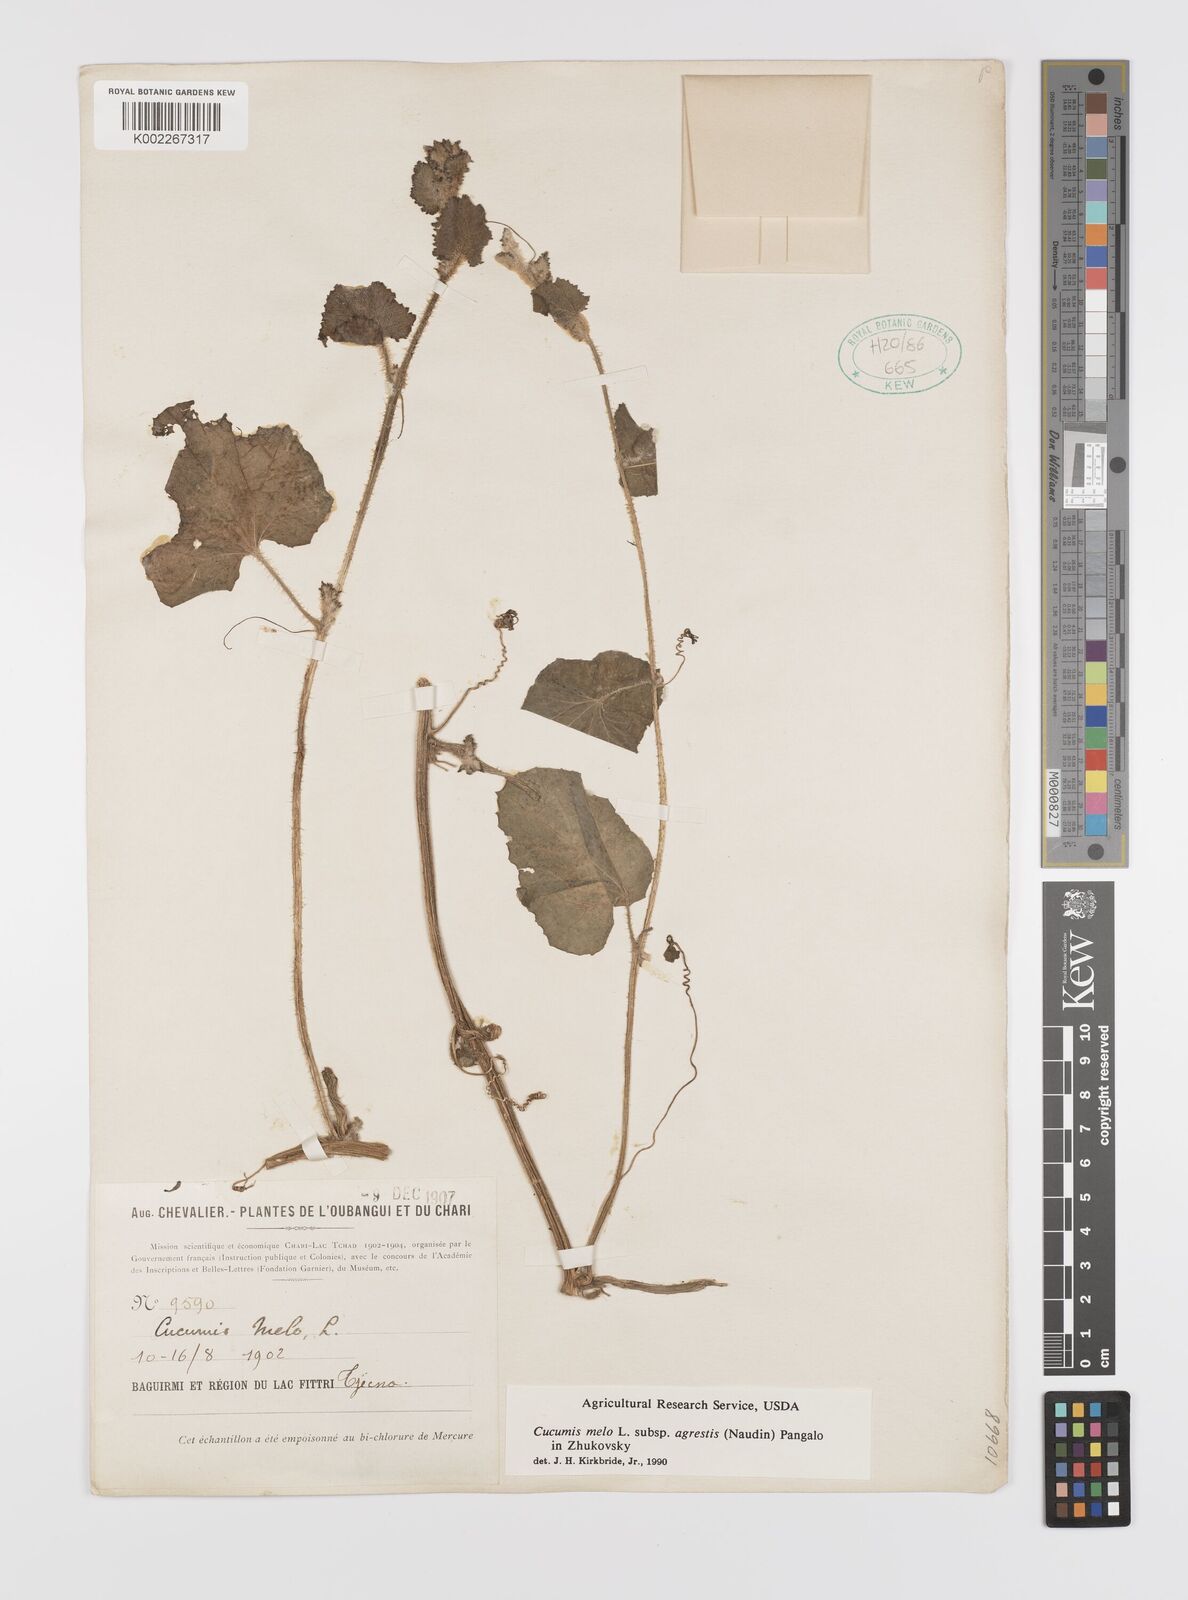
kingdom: Plantae
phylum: Tracheophyta
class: Magnoliopsida
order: Cucurbitales
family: Cucurbitaceae
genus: Cucumis
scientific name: Cucumis melo
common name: Melon
